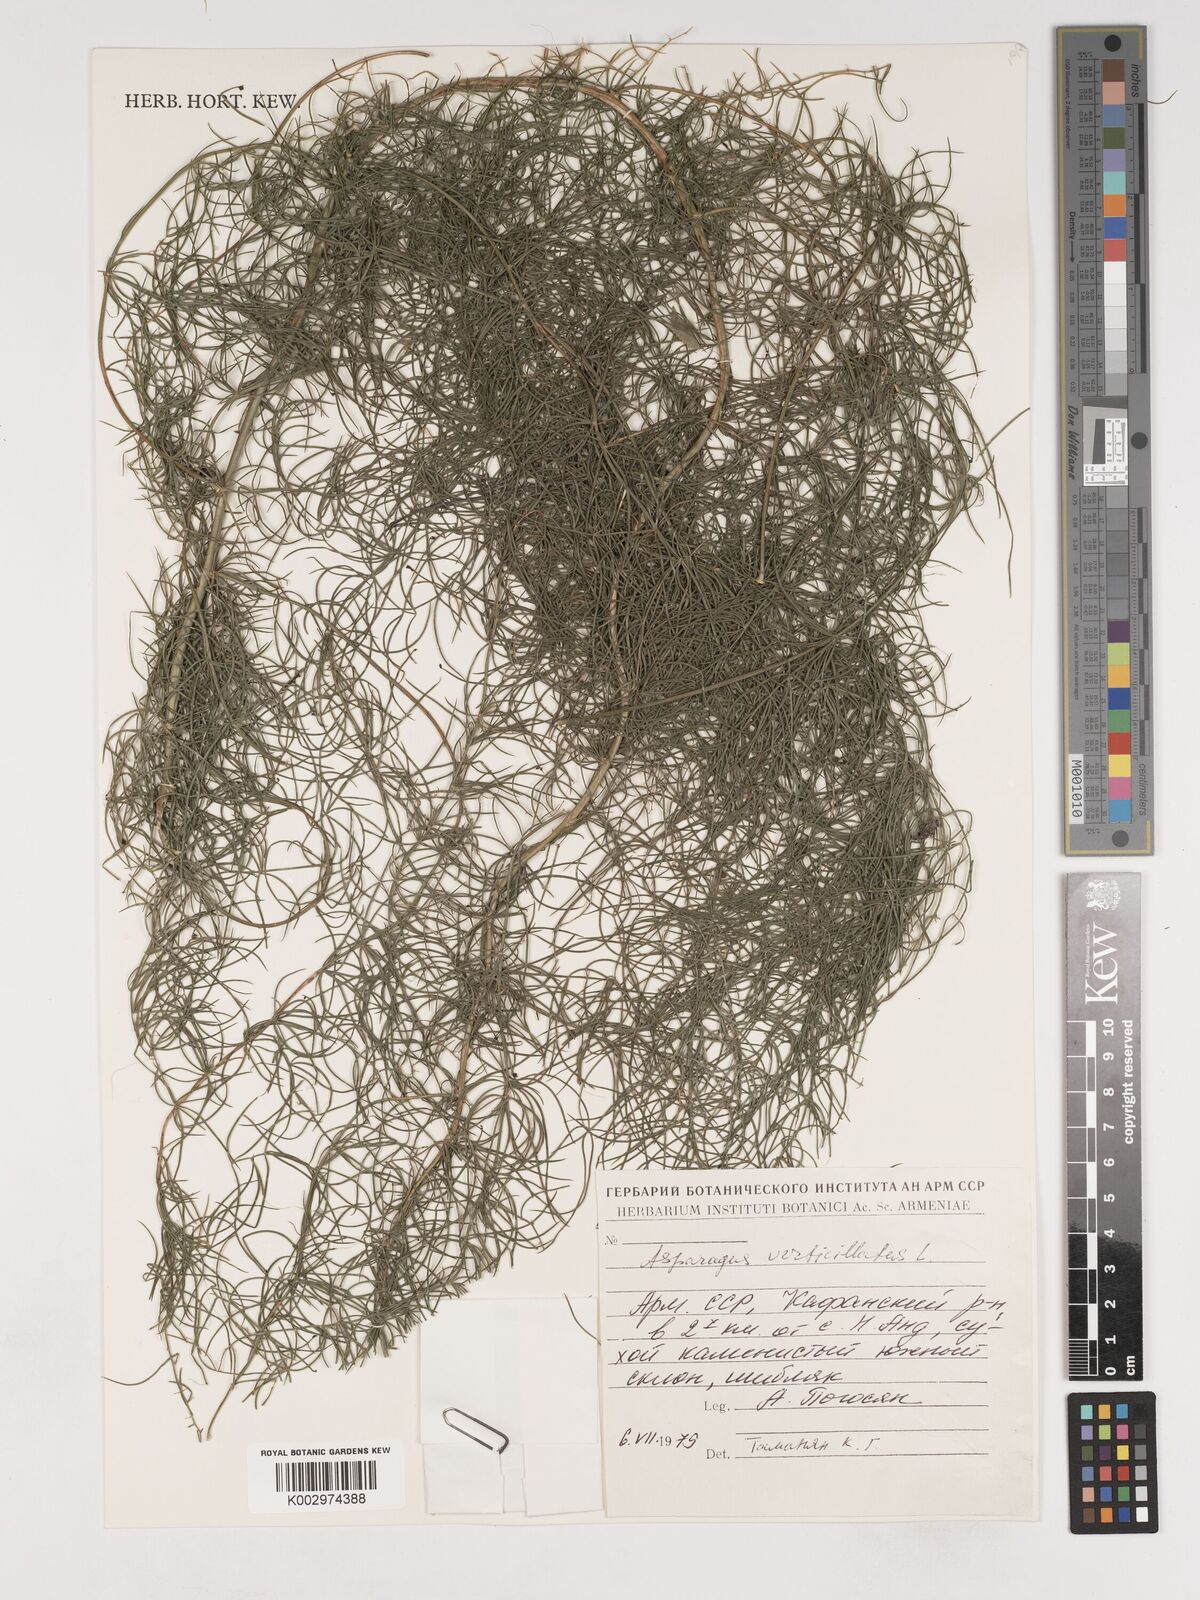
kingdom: Plantae
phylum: Tracheophyta
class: Liliopsida
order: Asparagales
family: Asparagaceae
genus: Asparagus
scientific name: Asparagus verticillatus
